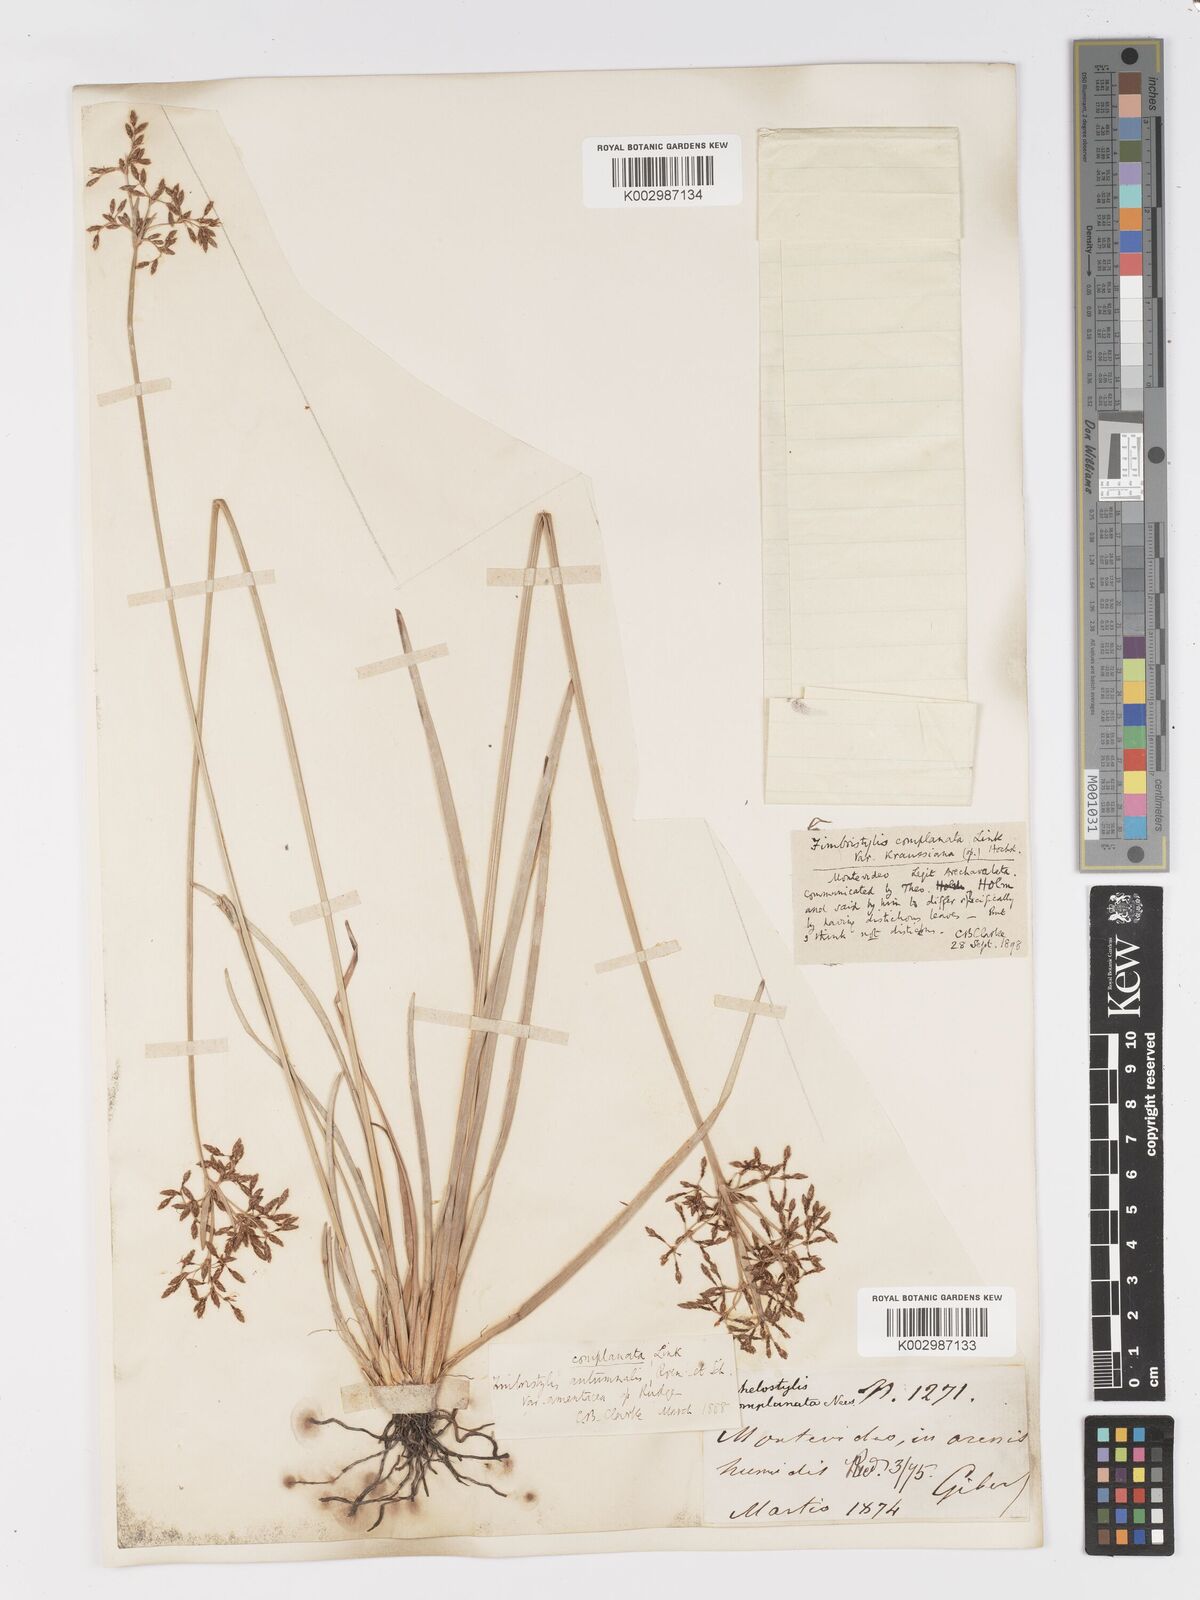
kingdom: Plantae
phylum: Tracheophyta
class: Liliopsida
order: Poales
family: Cyperaceae
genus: Fimbristylis
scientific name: Fimbristylis complanata
